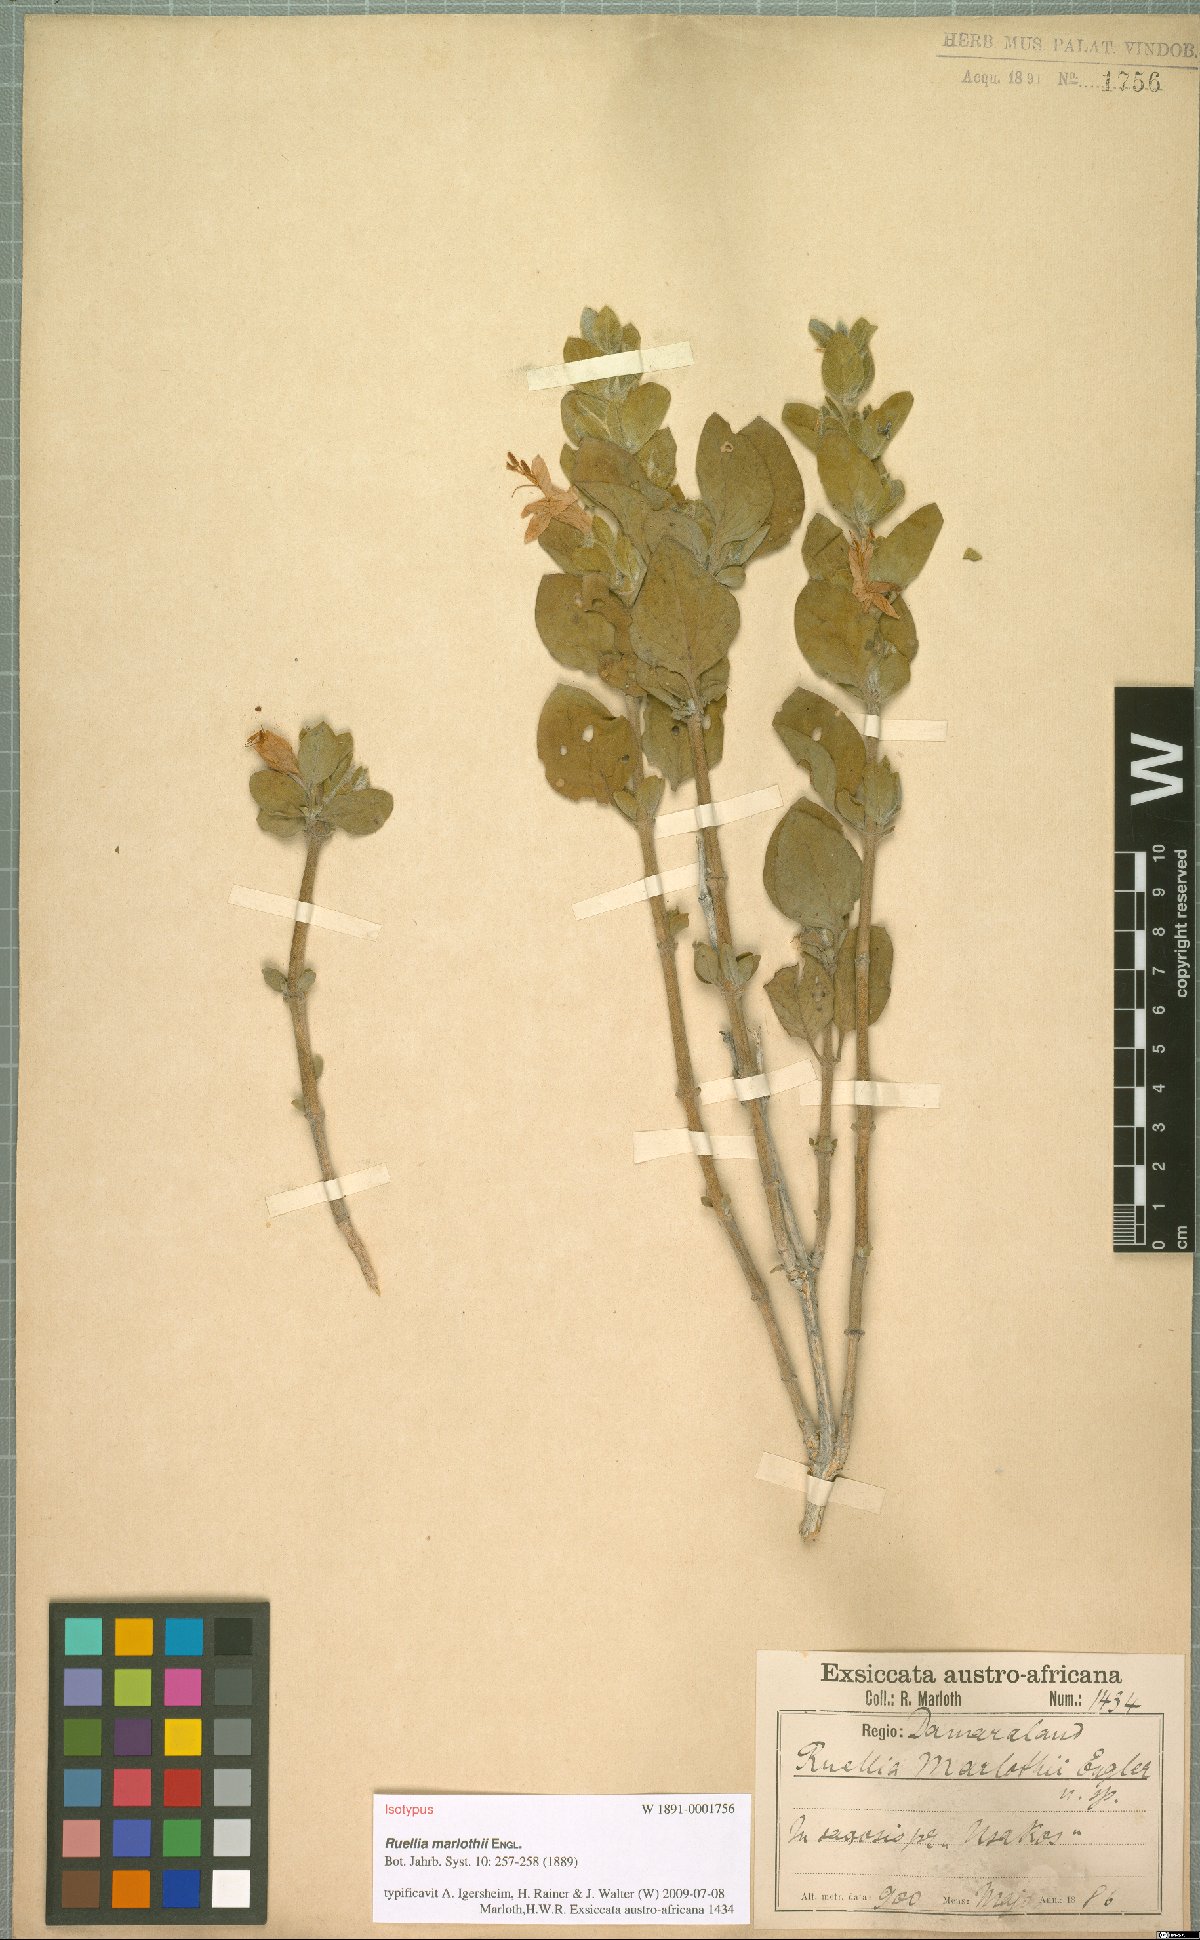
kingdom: Plantae
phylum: Tracheophyta
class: Magnoliopsida
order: Lamiales
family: Acanthaceae
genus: Dinteracanthus
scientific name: Dinteracanthus diversifolius
